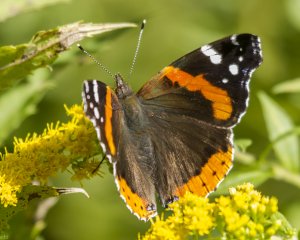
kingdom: Animalia
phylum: Arthropoda
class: Insecta
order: Lepidoptera
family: Nymphalidae
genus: Vanessa
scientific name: Vanessa atalanta
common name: Red Admiral
